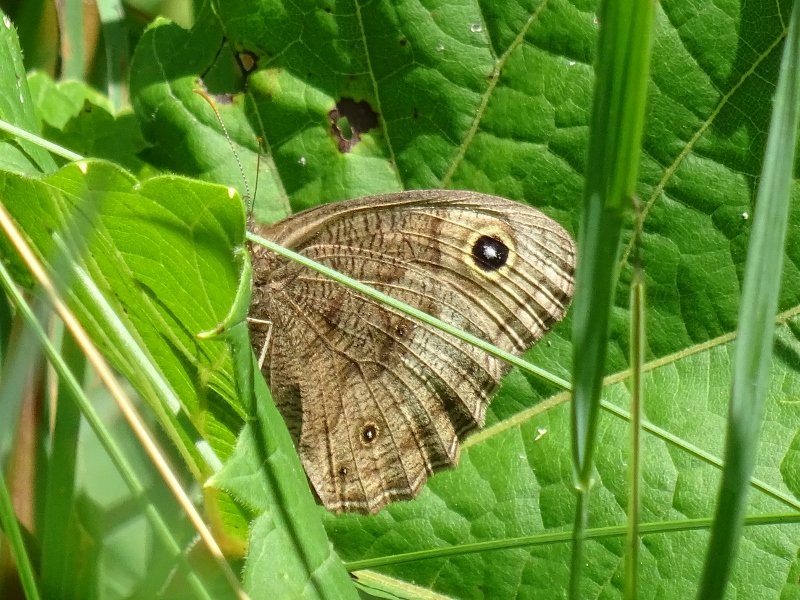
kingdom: Animalia
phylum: Arthropoda
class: Insecta
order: Lepidoptera
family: Nymphalidae
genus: Cercyonis
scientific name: Cercyonis pegala
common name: Common Wood-Nymph
